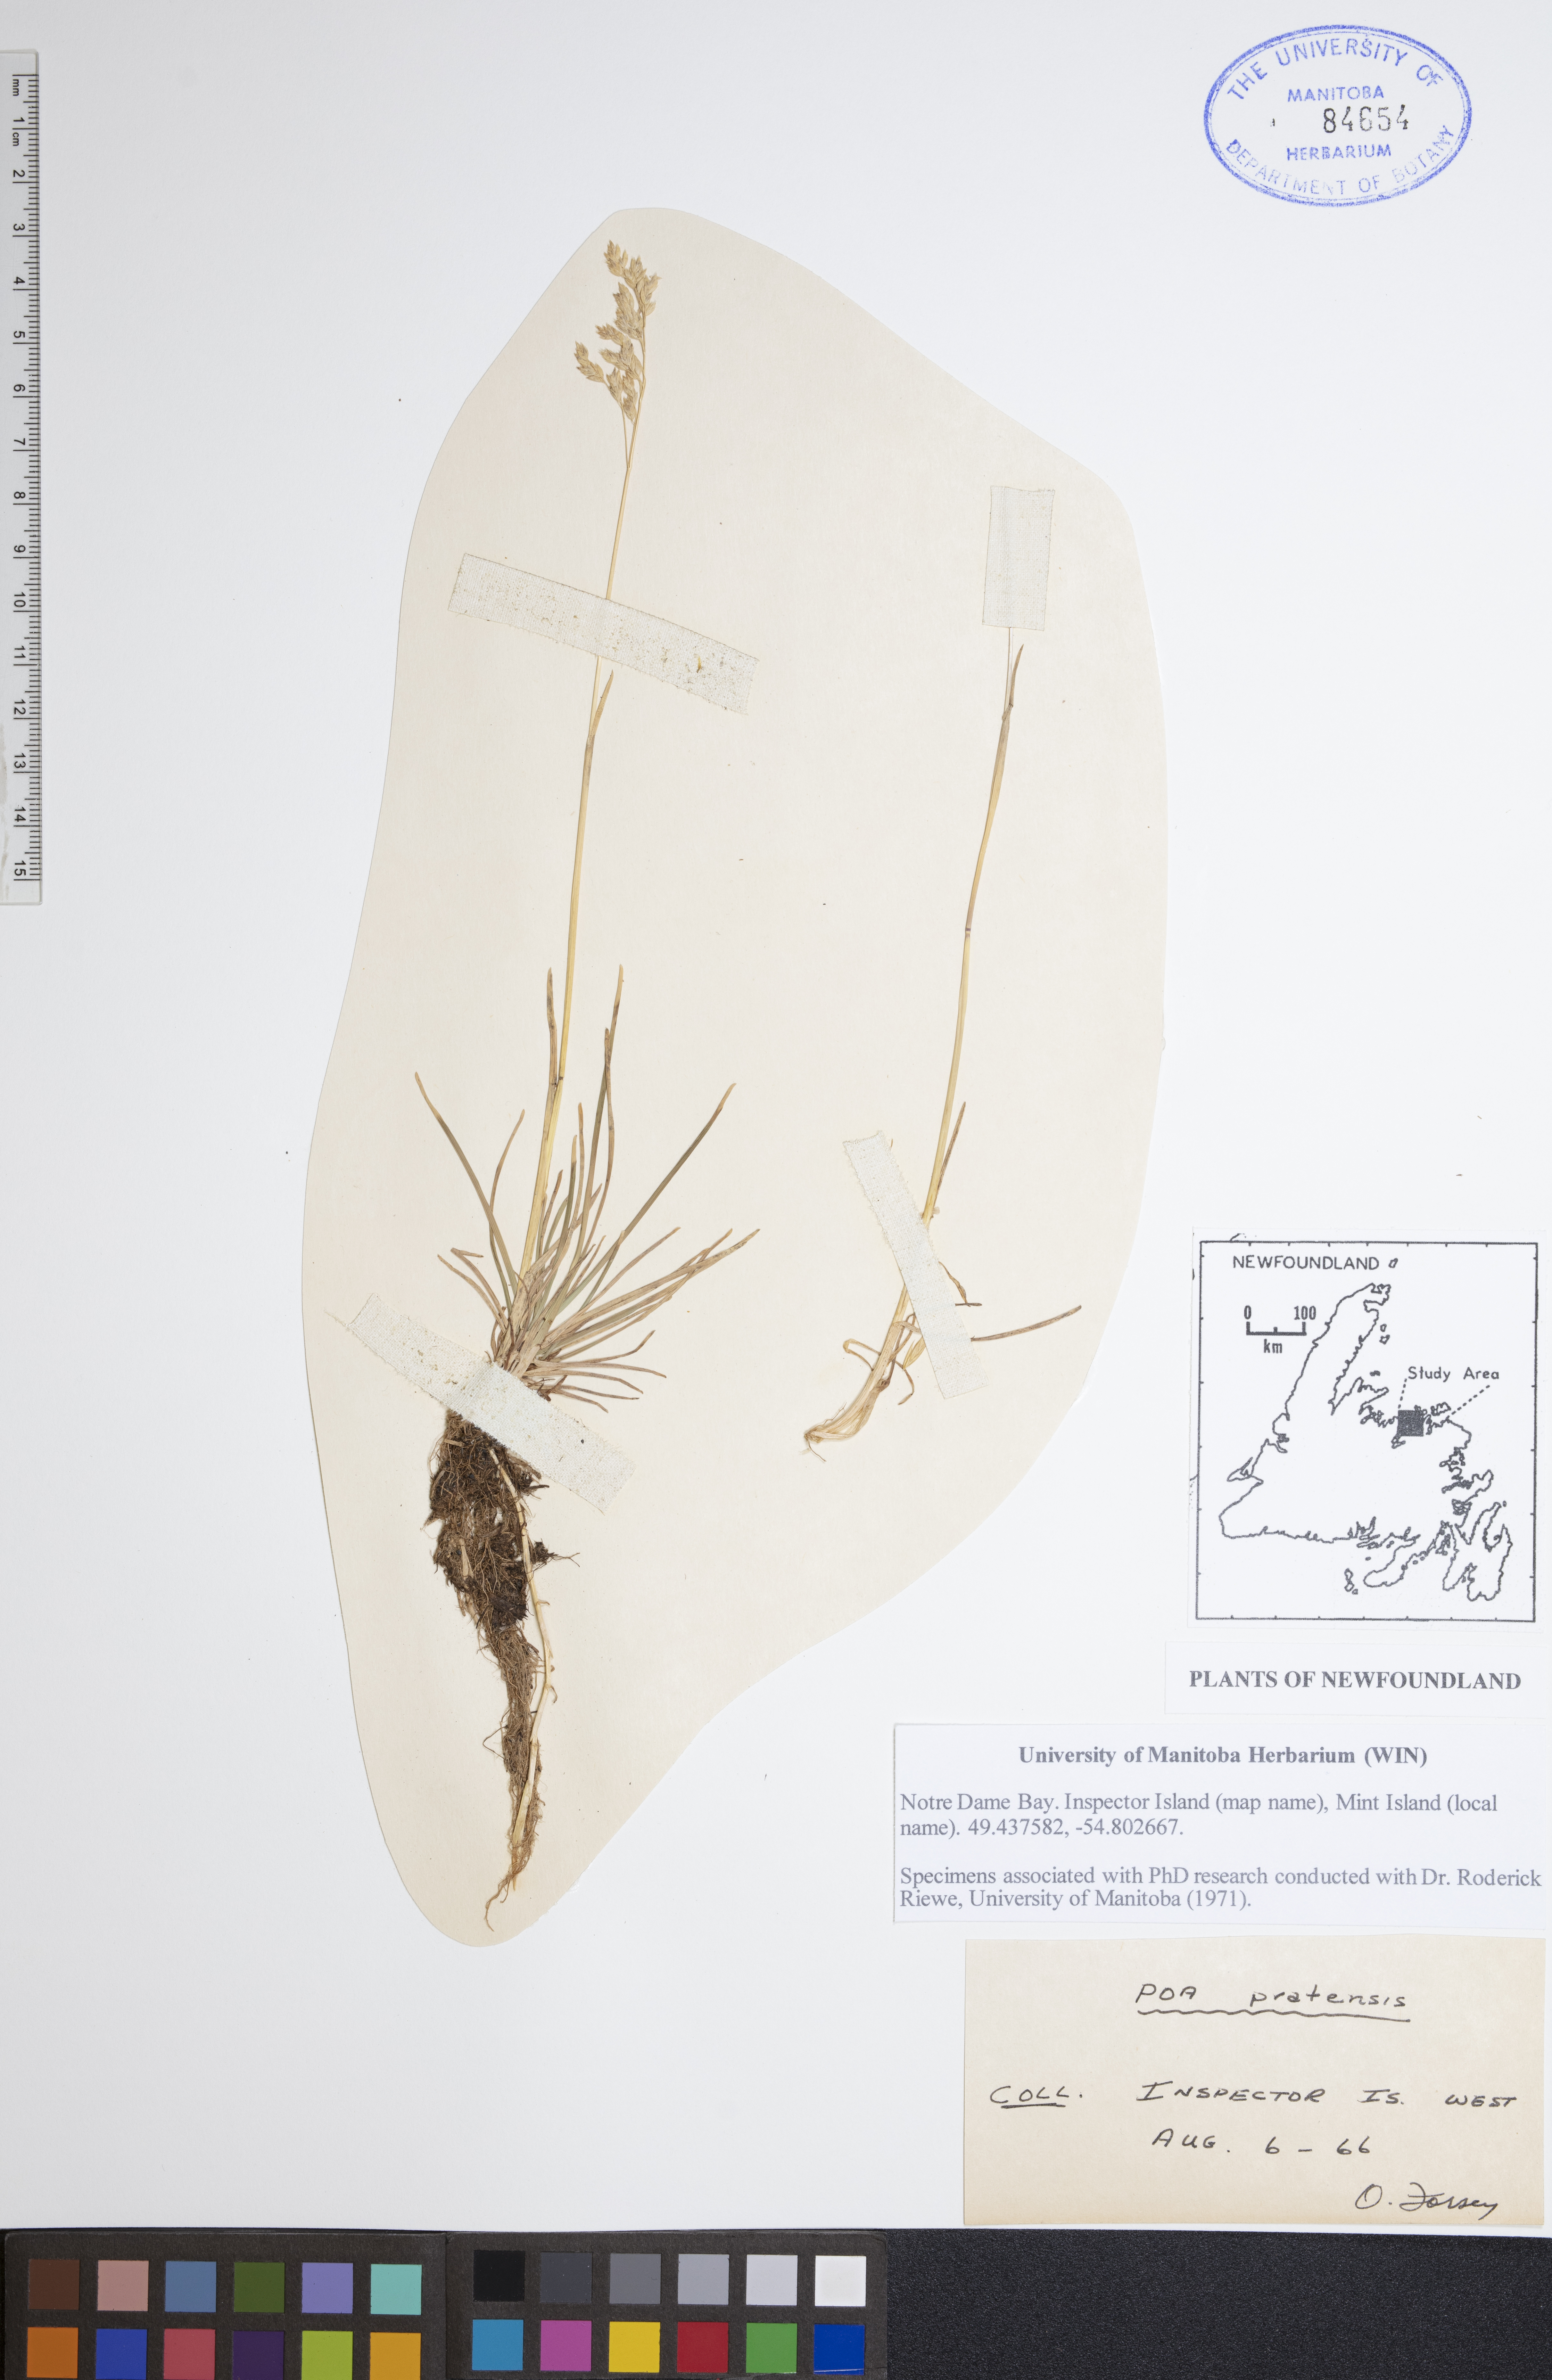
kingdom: Plantae
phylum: Tracheophyta
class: Liliopsida
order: Poales
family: Poaceae
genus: Poa
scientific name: Poa pratensis
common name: Kentucky bluegrass
